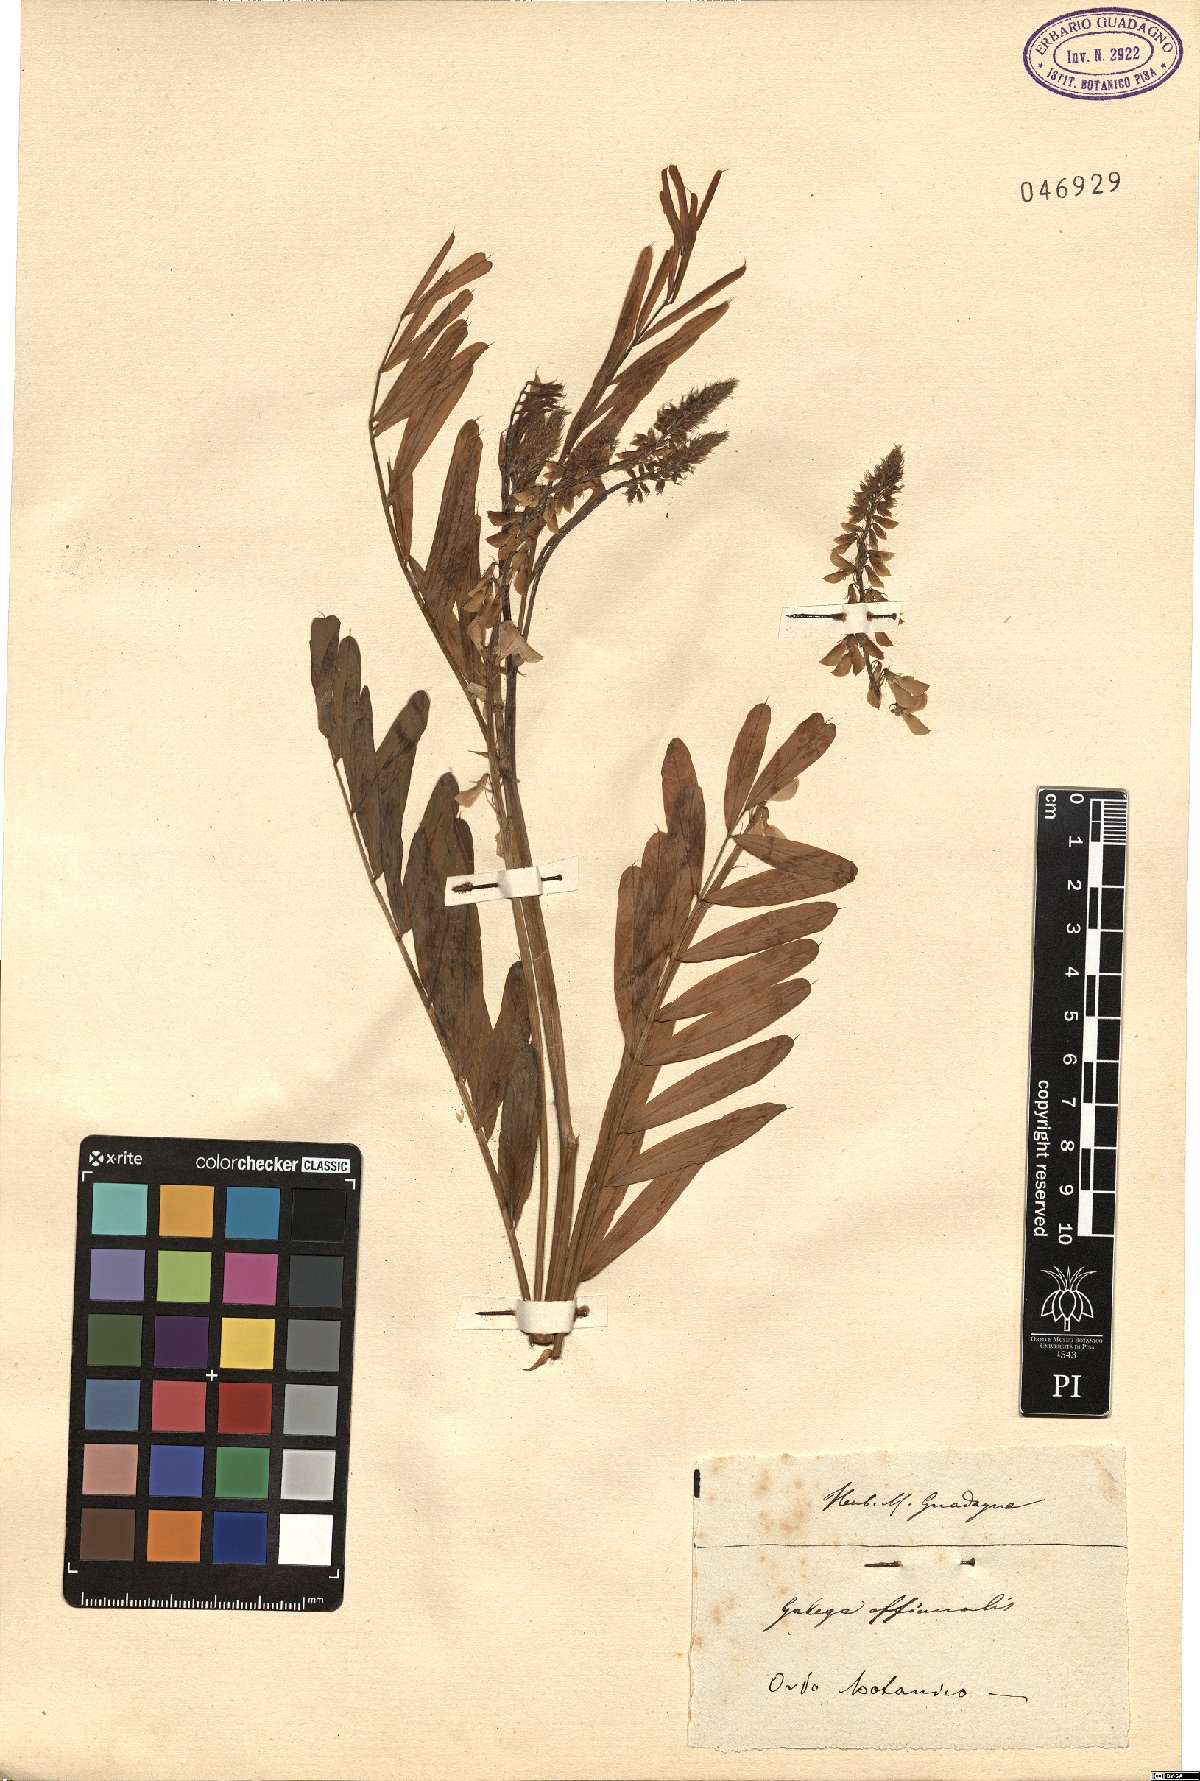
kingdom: Plantae
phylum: Tracheophyta
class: Magnoliopsida
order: Fabales
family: Fabaceae
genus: Galega
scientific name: Galega officinalis
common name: Goat's-rue
